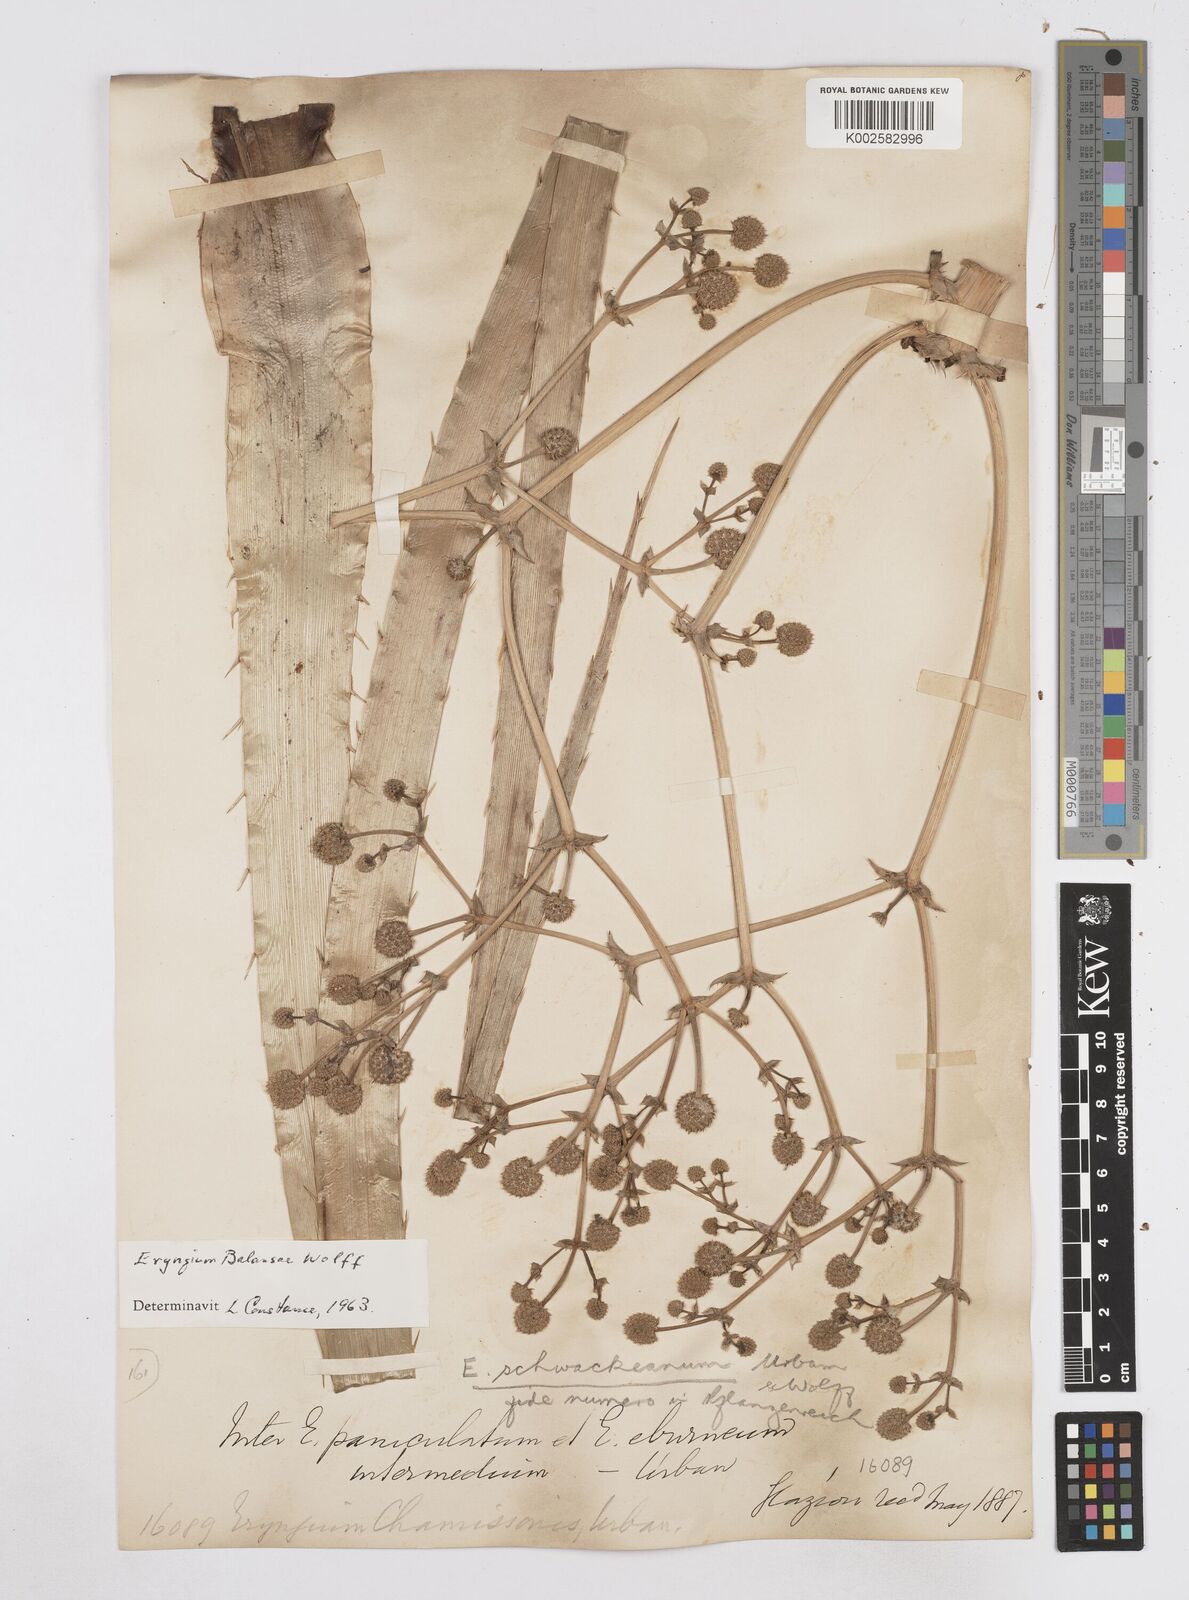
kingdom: Plantae
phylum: Tracheophyta
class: Magnoliopsida
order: Apiales
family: Apiaceae
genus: Eryngium
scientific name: Eryngium balansae
